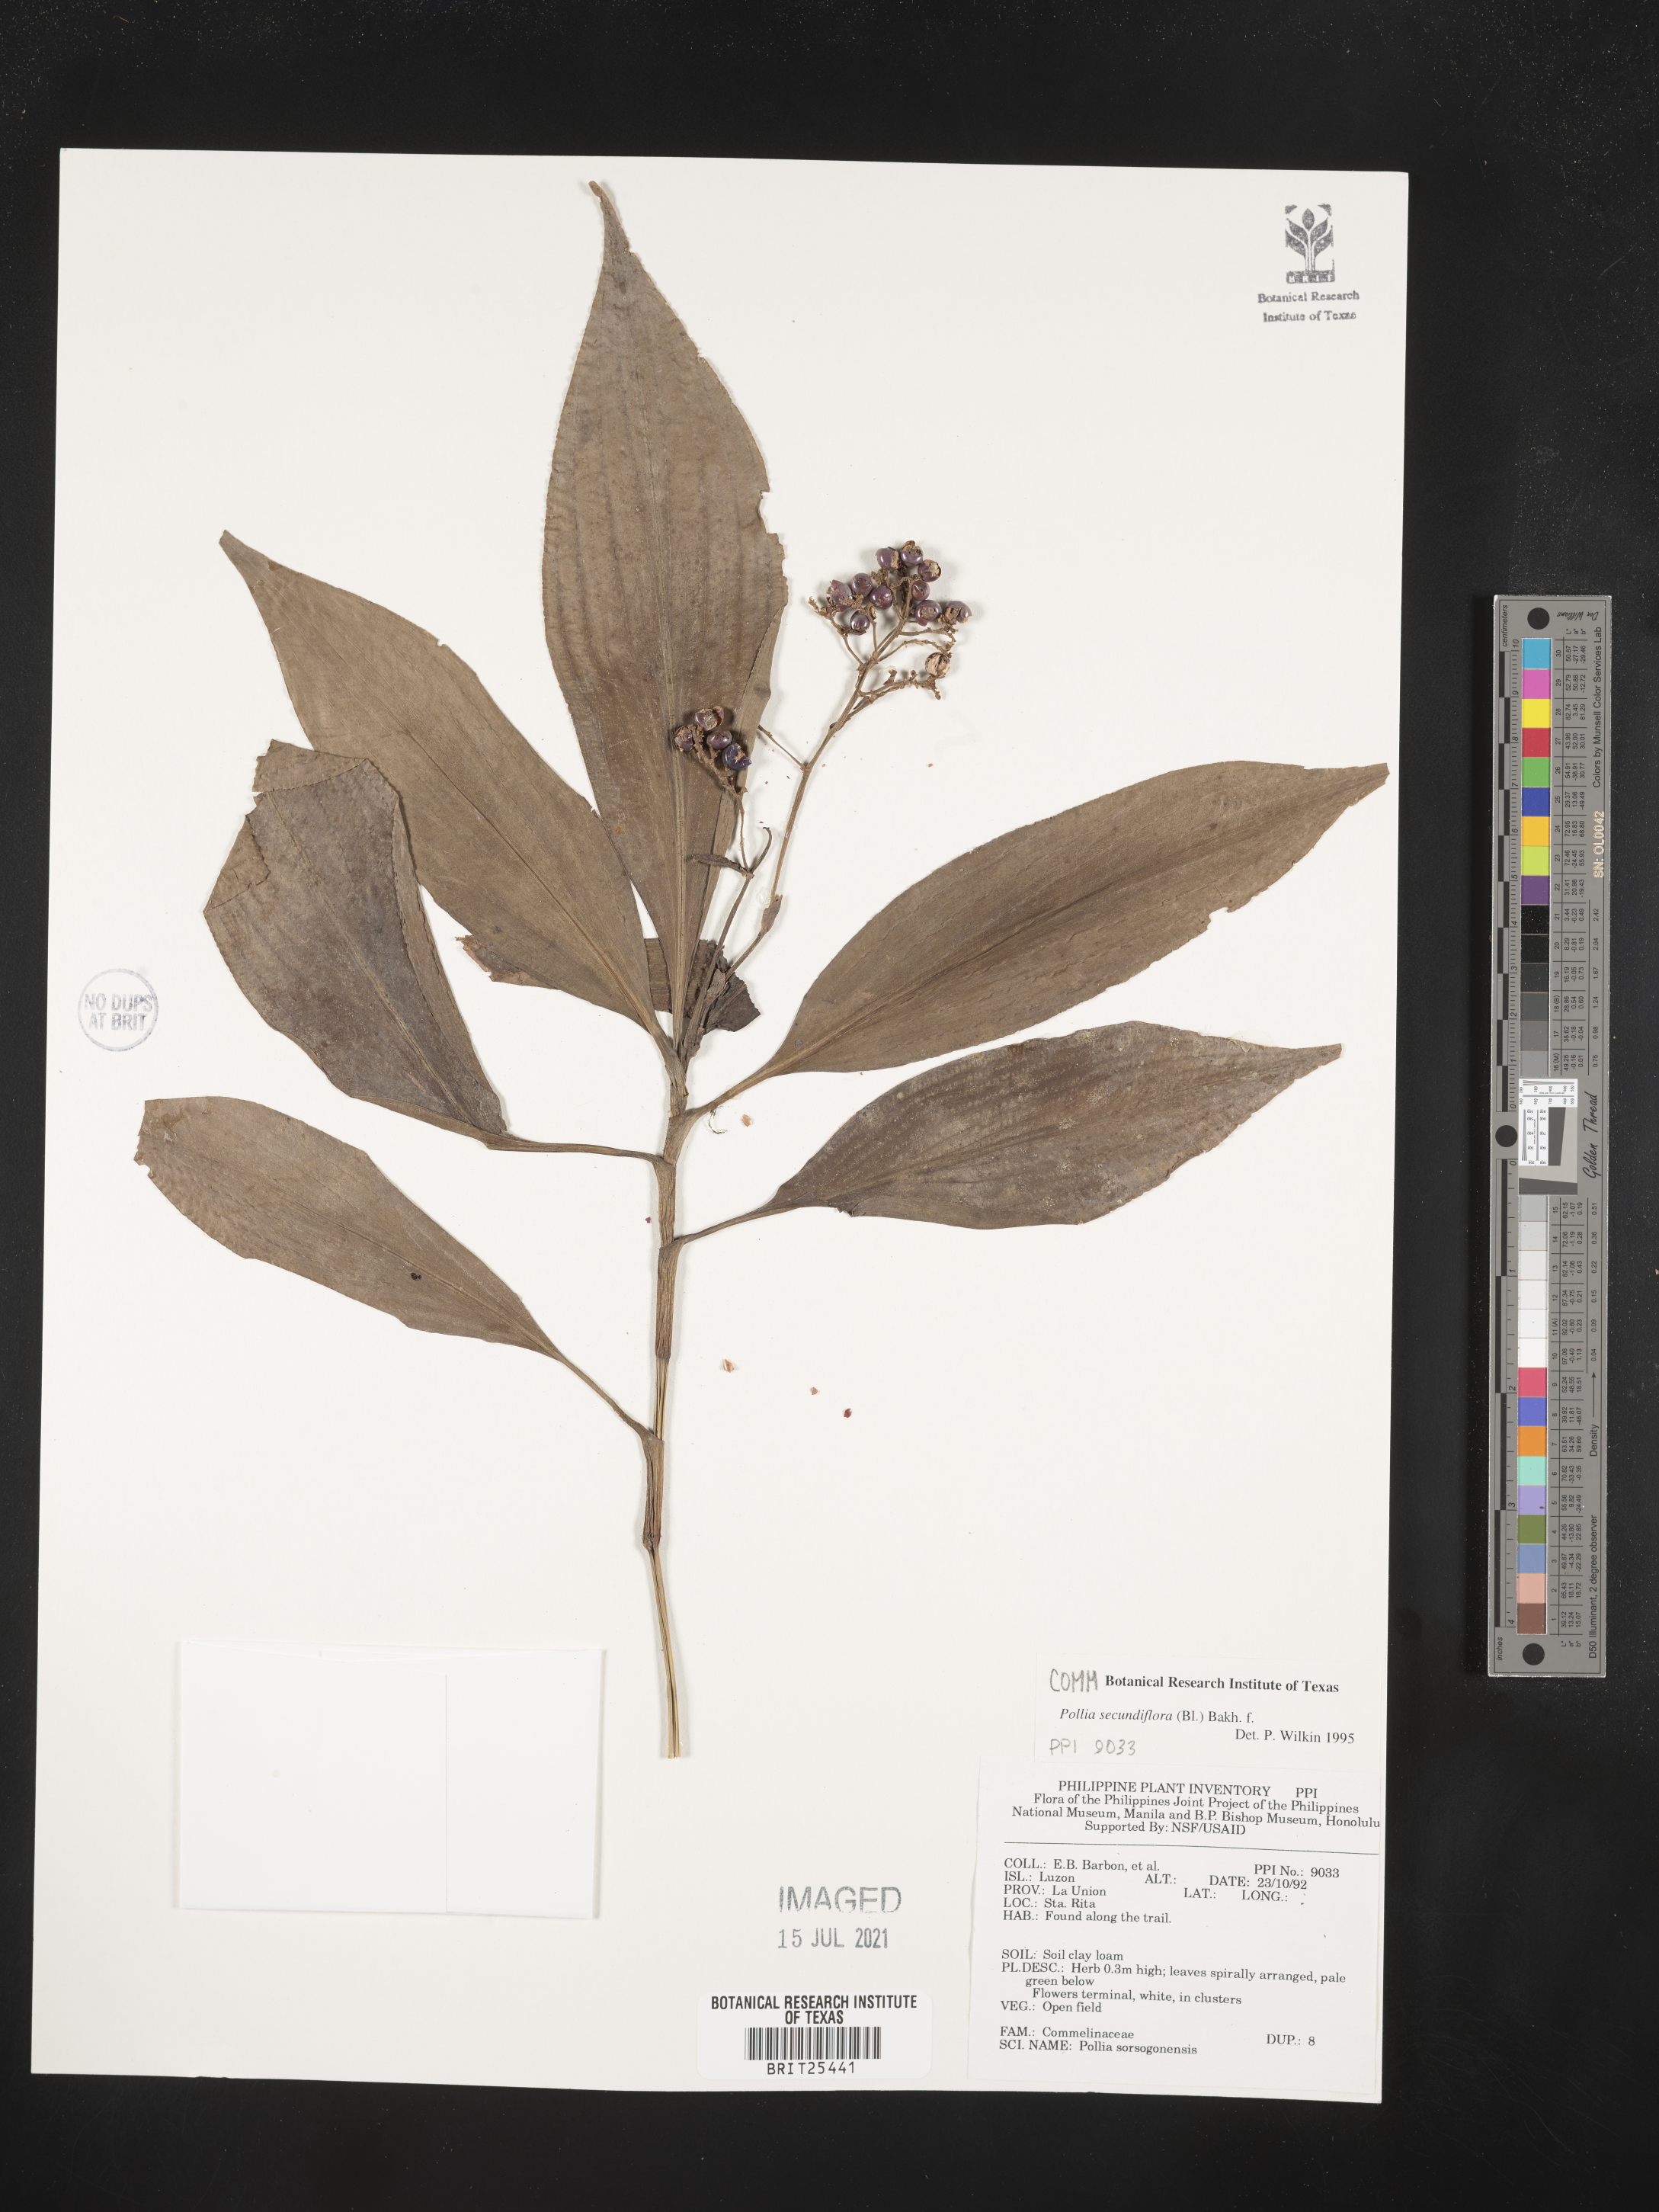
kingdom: Plantae
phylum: Tracheophyta
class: Liliopsida
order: Commelinales
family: Commelinaceae
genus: Pollia
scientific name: Pollia secundiflora
